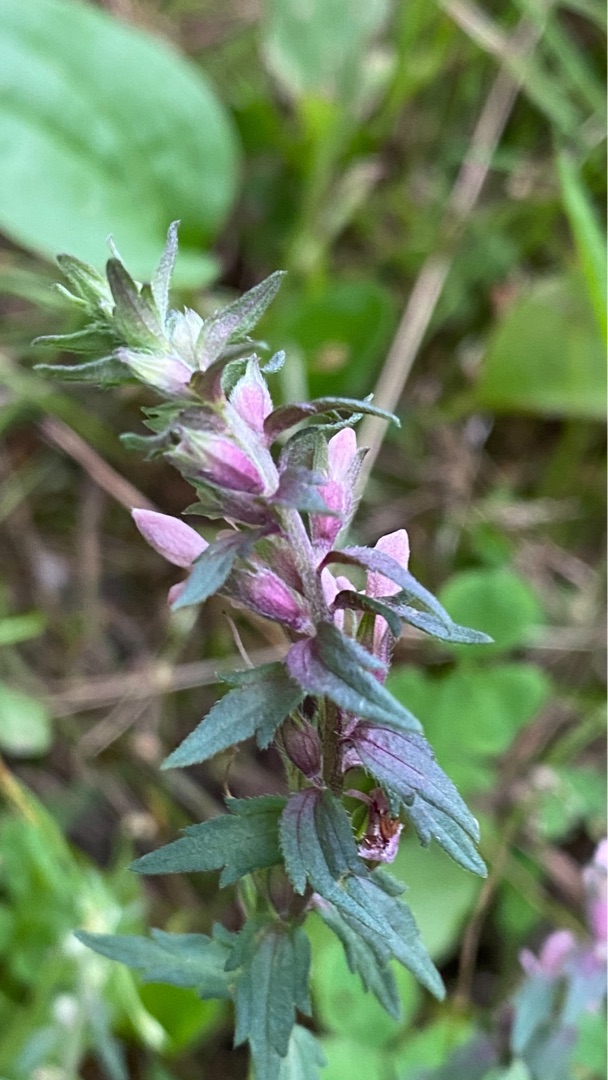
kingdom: Plantae
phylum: Tracheophyta
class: Magnoliopsida
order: Lamiales
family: Orobanchaceae
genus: Odontites
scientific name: Odontites vulgaris
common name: Høst-rødtop
